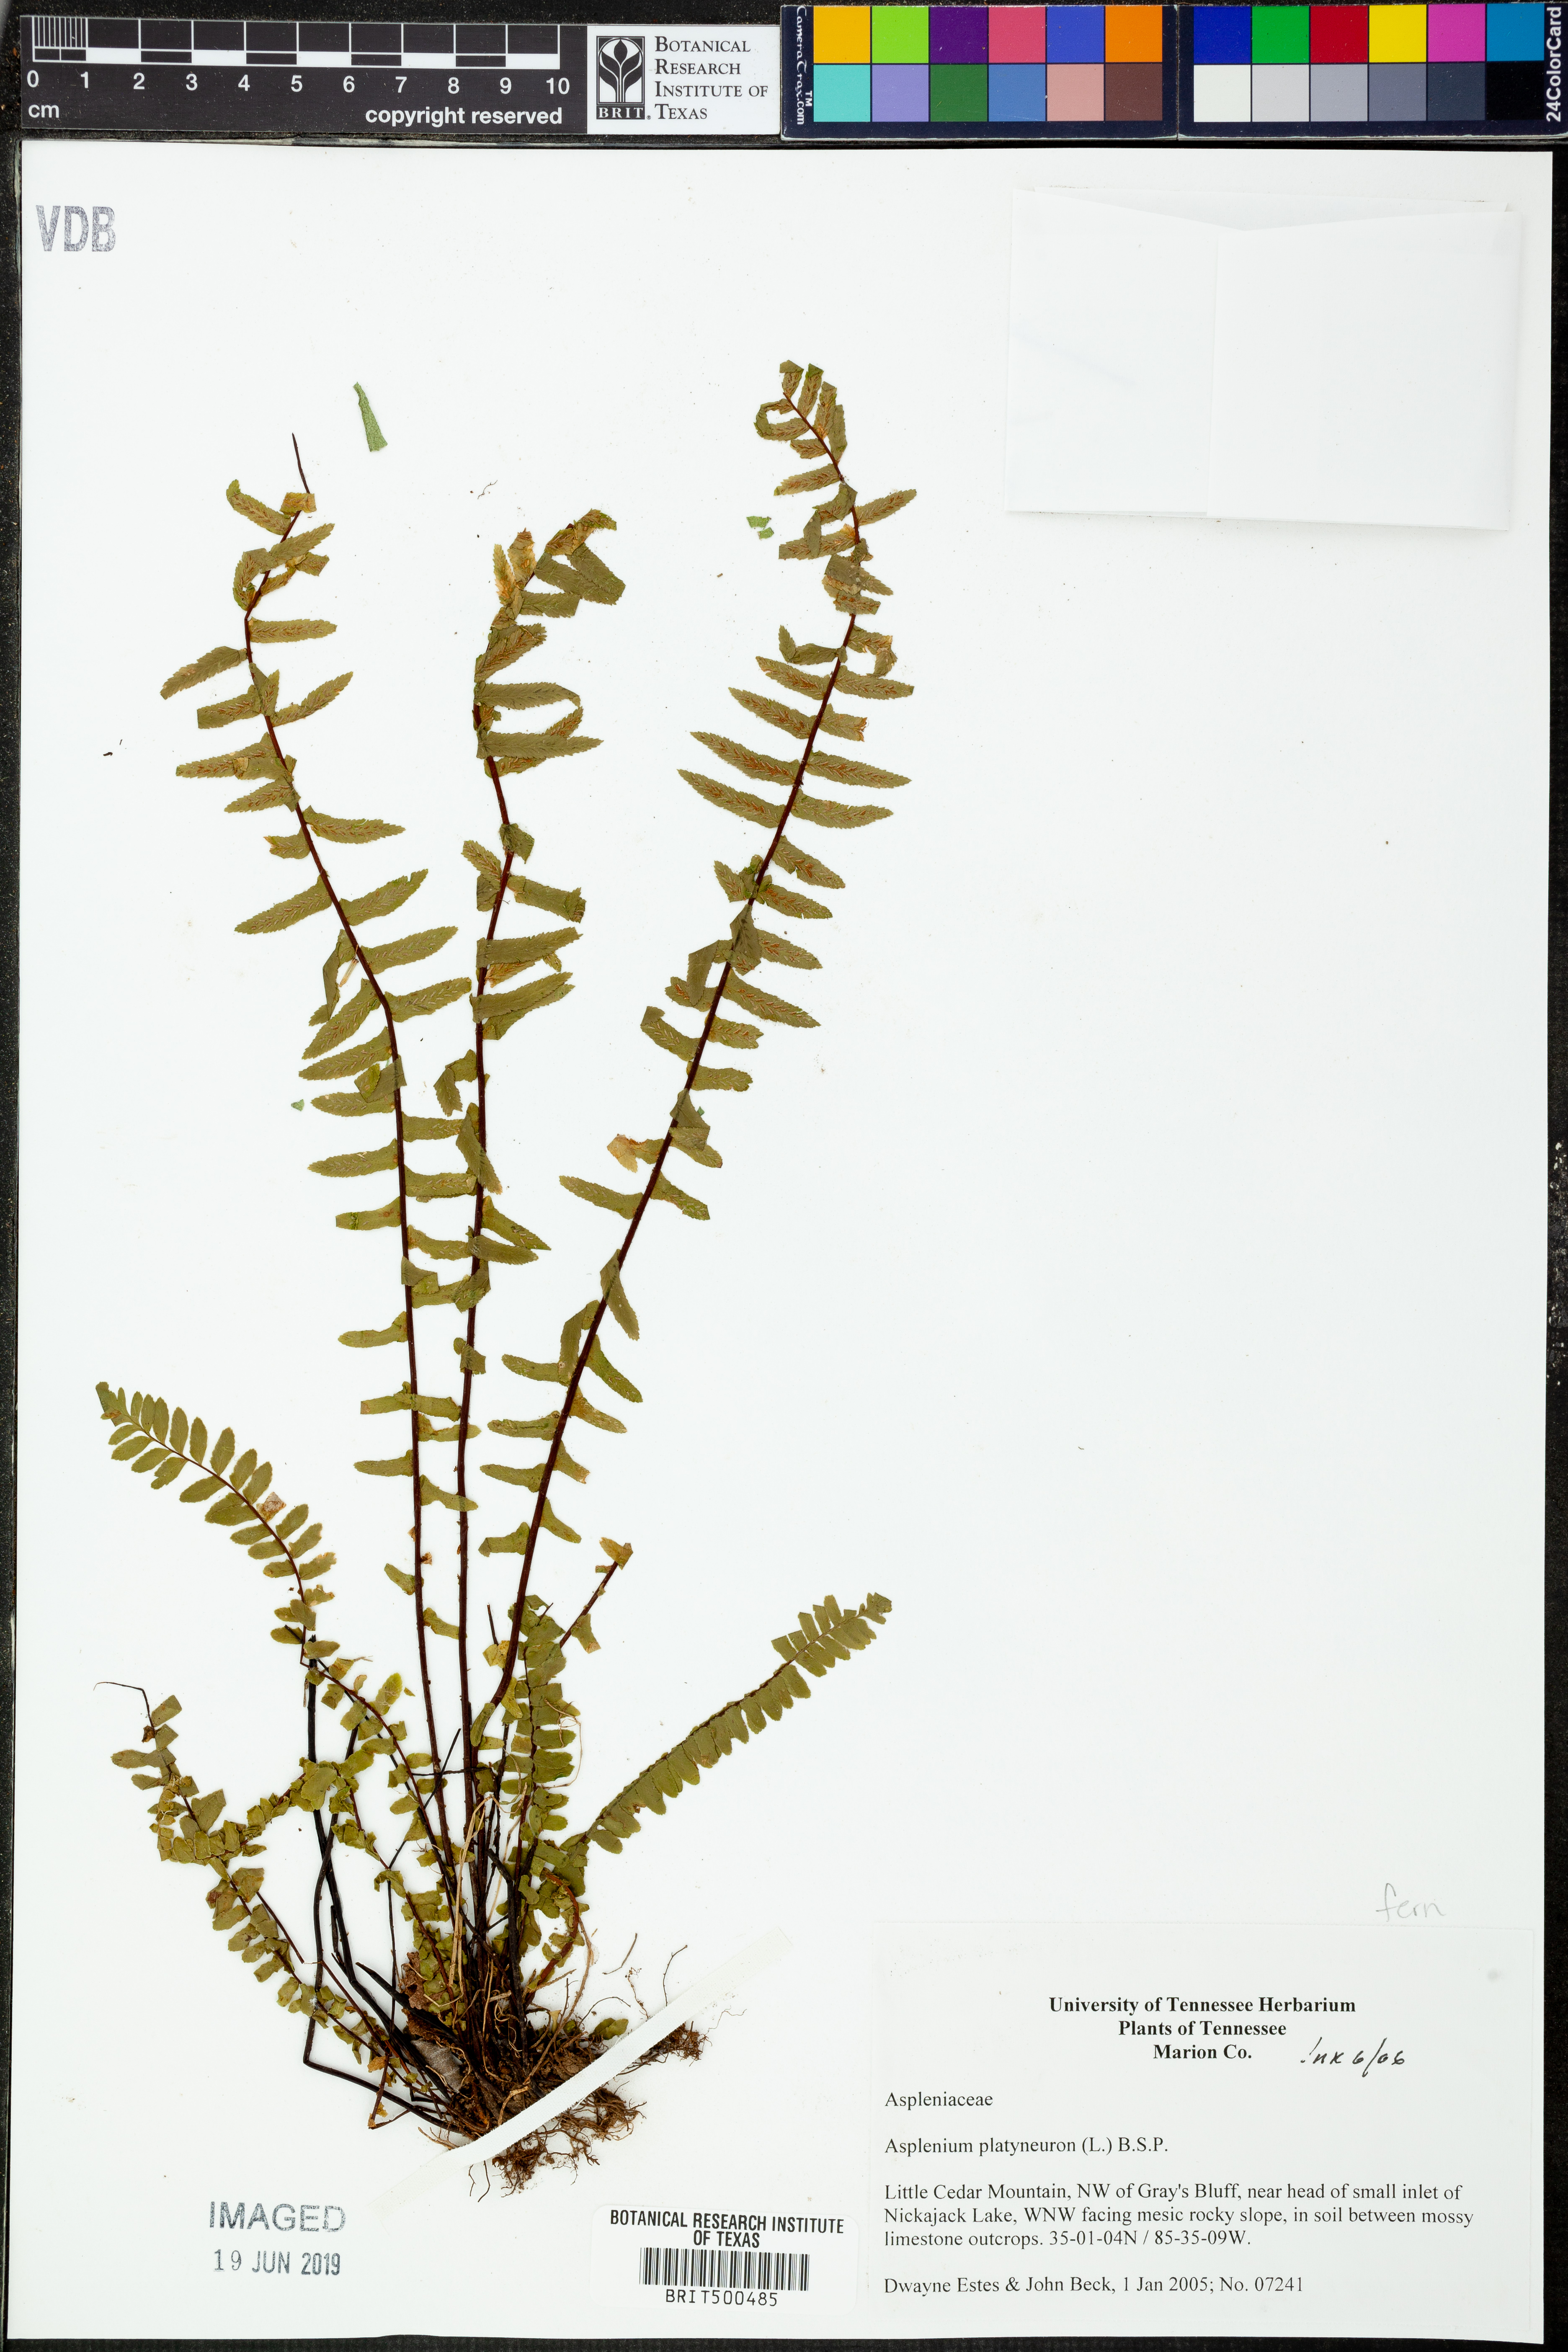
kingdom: Plantae
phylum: Tracheophyta
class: Polypodiopsida
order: Polypodiales
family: Aspleniaceae
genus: Asplenium
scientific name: Asplenium platyneuron
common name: Ebony spleenwort
